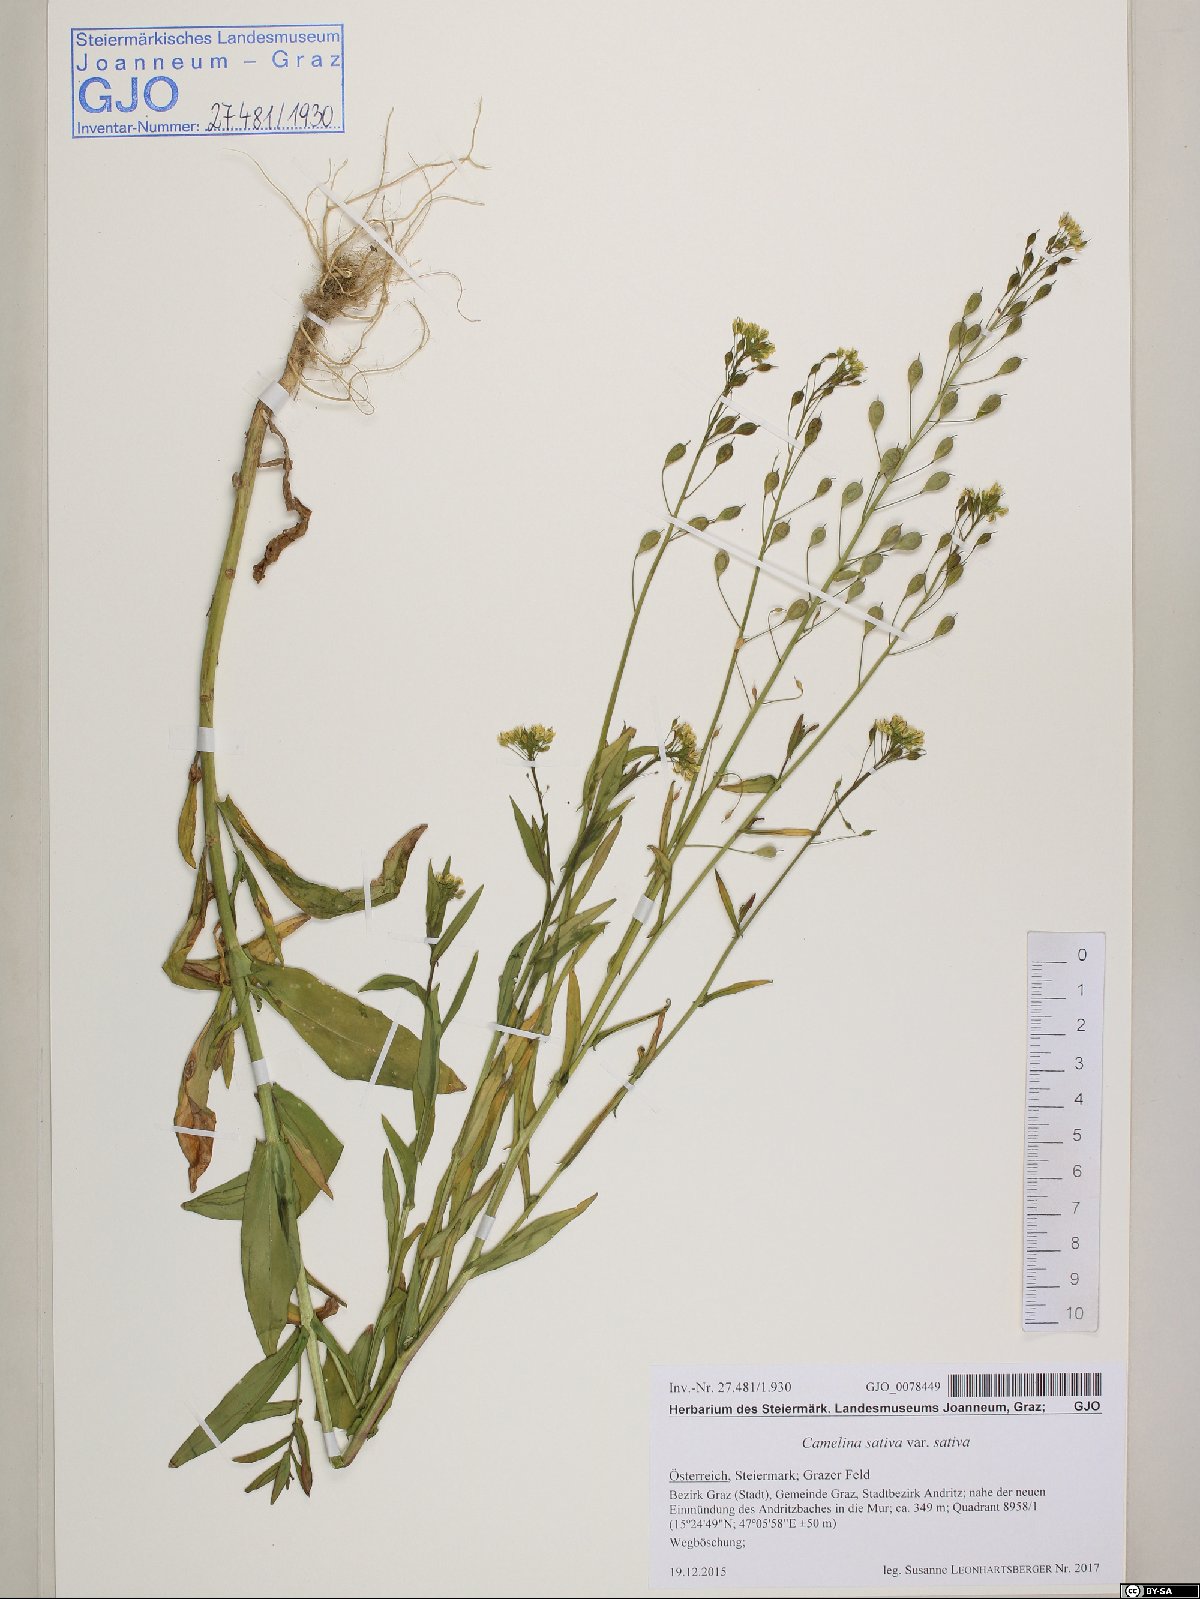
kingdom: Plantae
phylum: Tracheophyta
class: Magnoliopsida
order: Brassicales
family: Brassicaceae
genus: Camelina
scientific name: Camelina sativa
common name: Gold-of-pleasure
